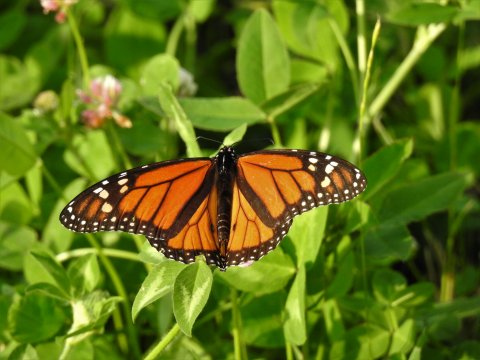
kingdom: Animalia
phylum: Arthropoda
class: Insecta
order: Lepidoptera
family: Nymphalidae
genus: Danaus
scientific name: Danaus plexippus
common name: Monarch
